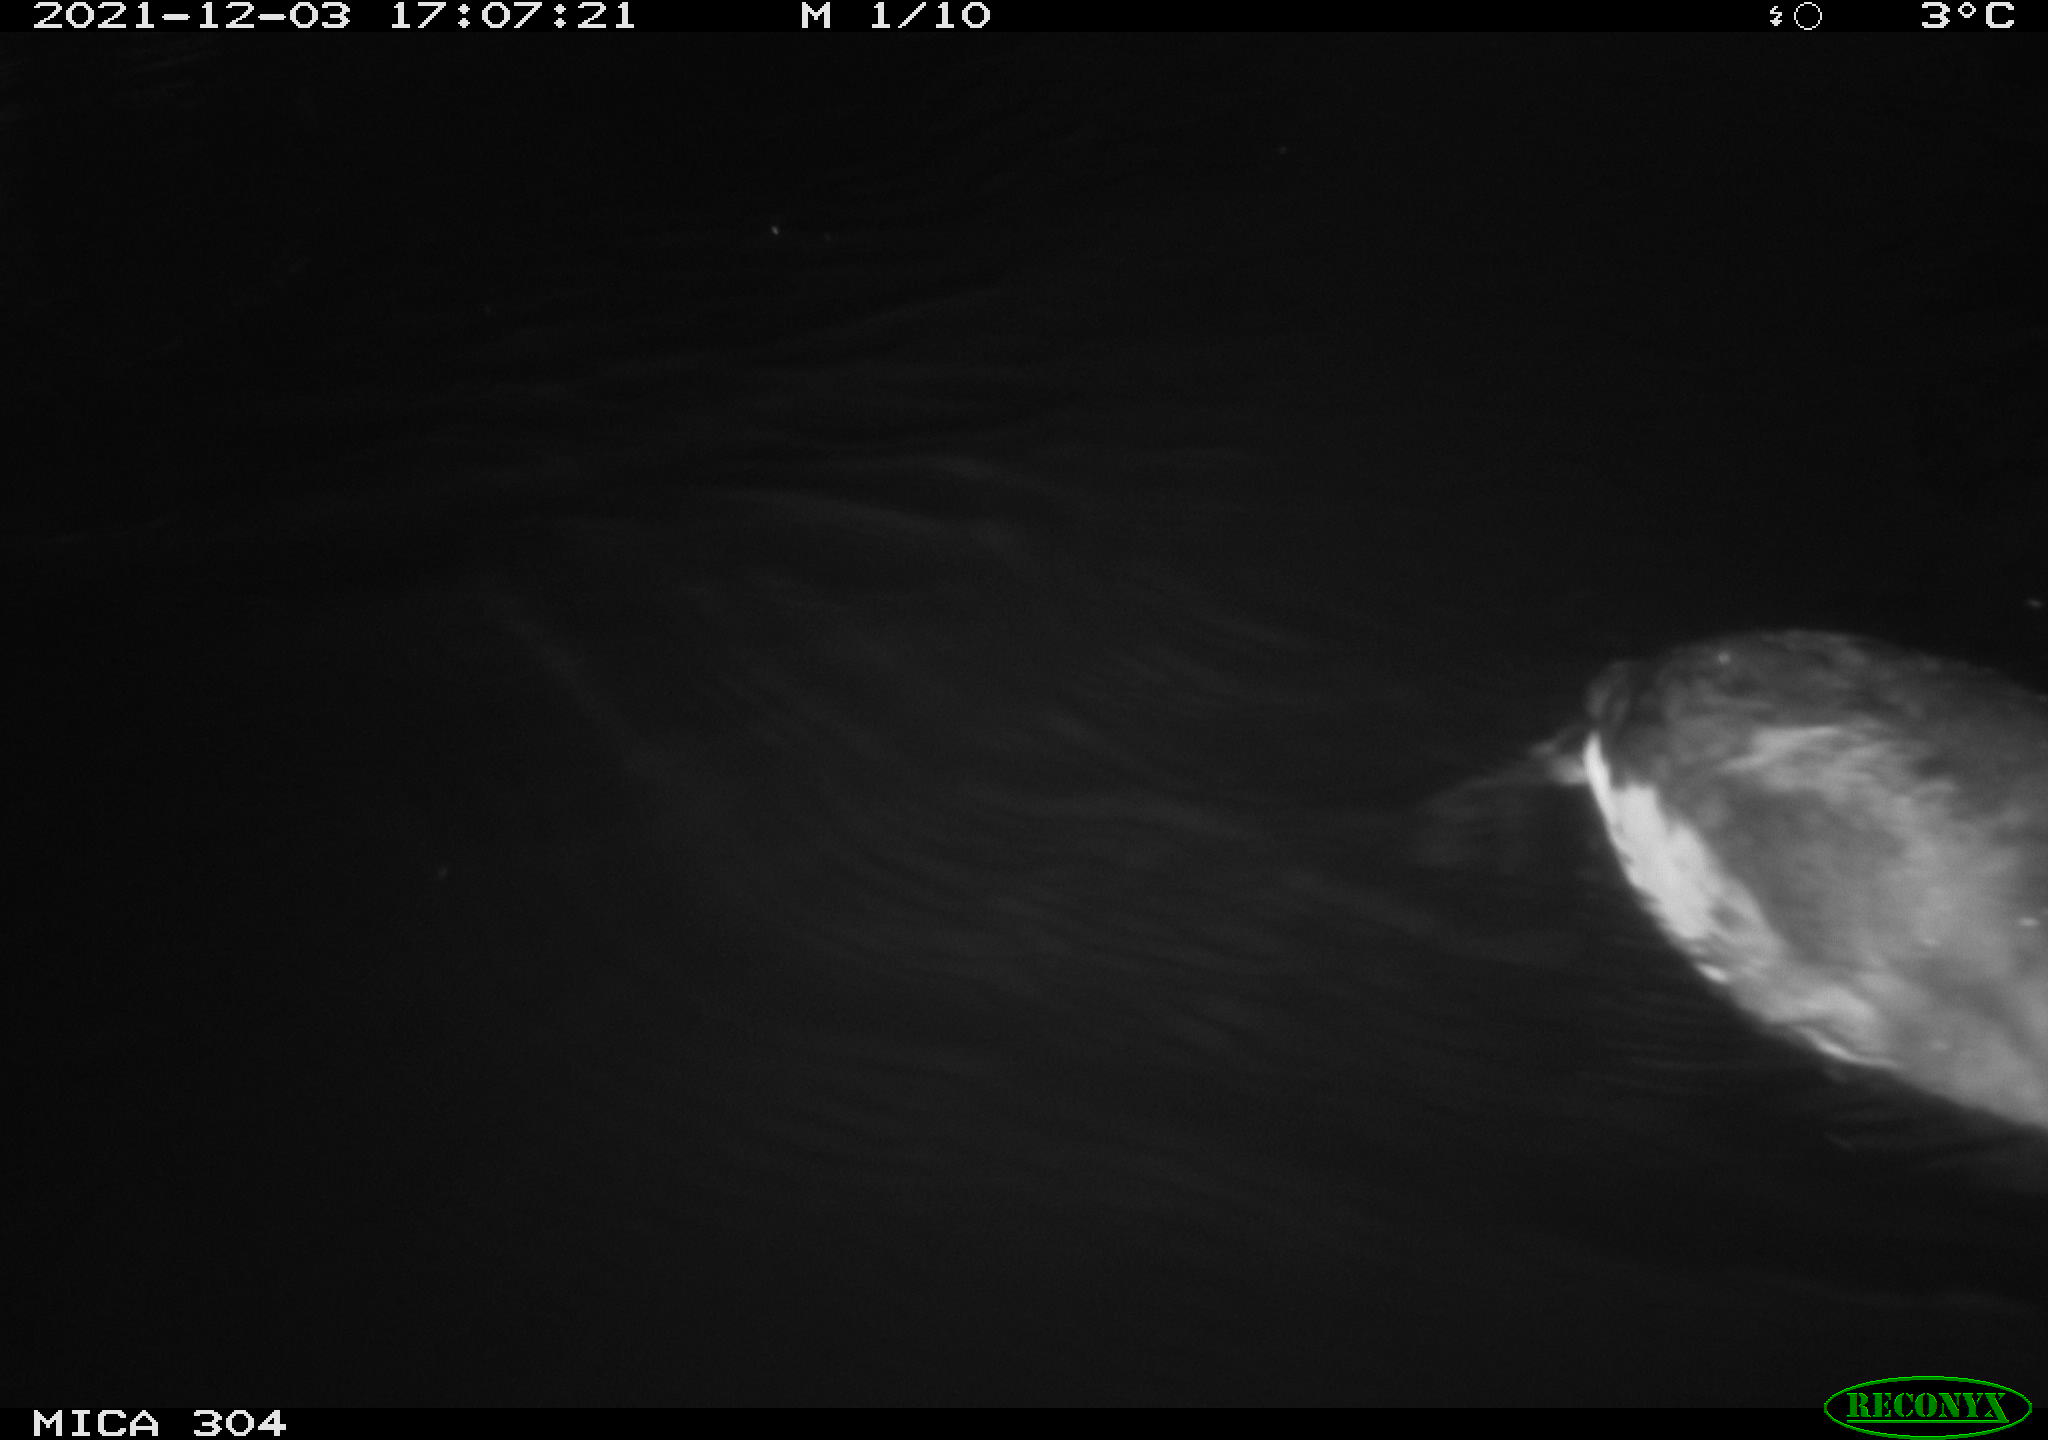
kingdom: Animalia
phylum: Chordata
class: Aves
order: Gruiformes
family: Rallidae
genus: Fulica
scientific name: Fulica atra
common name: Eurasian coot
